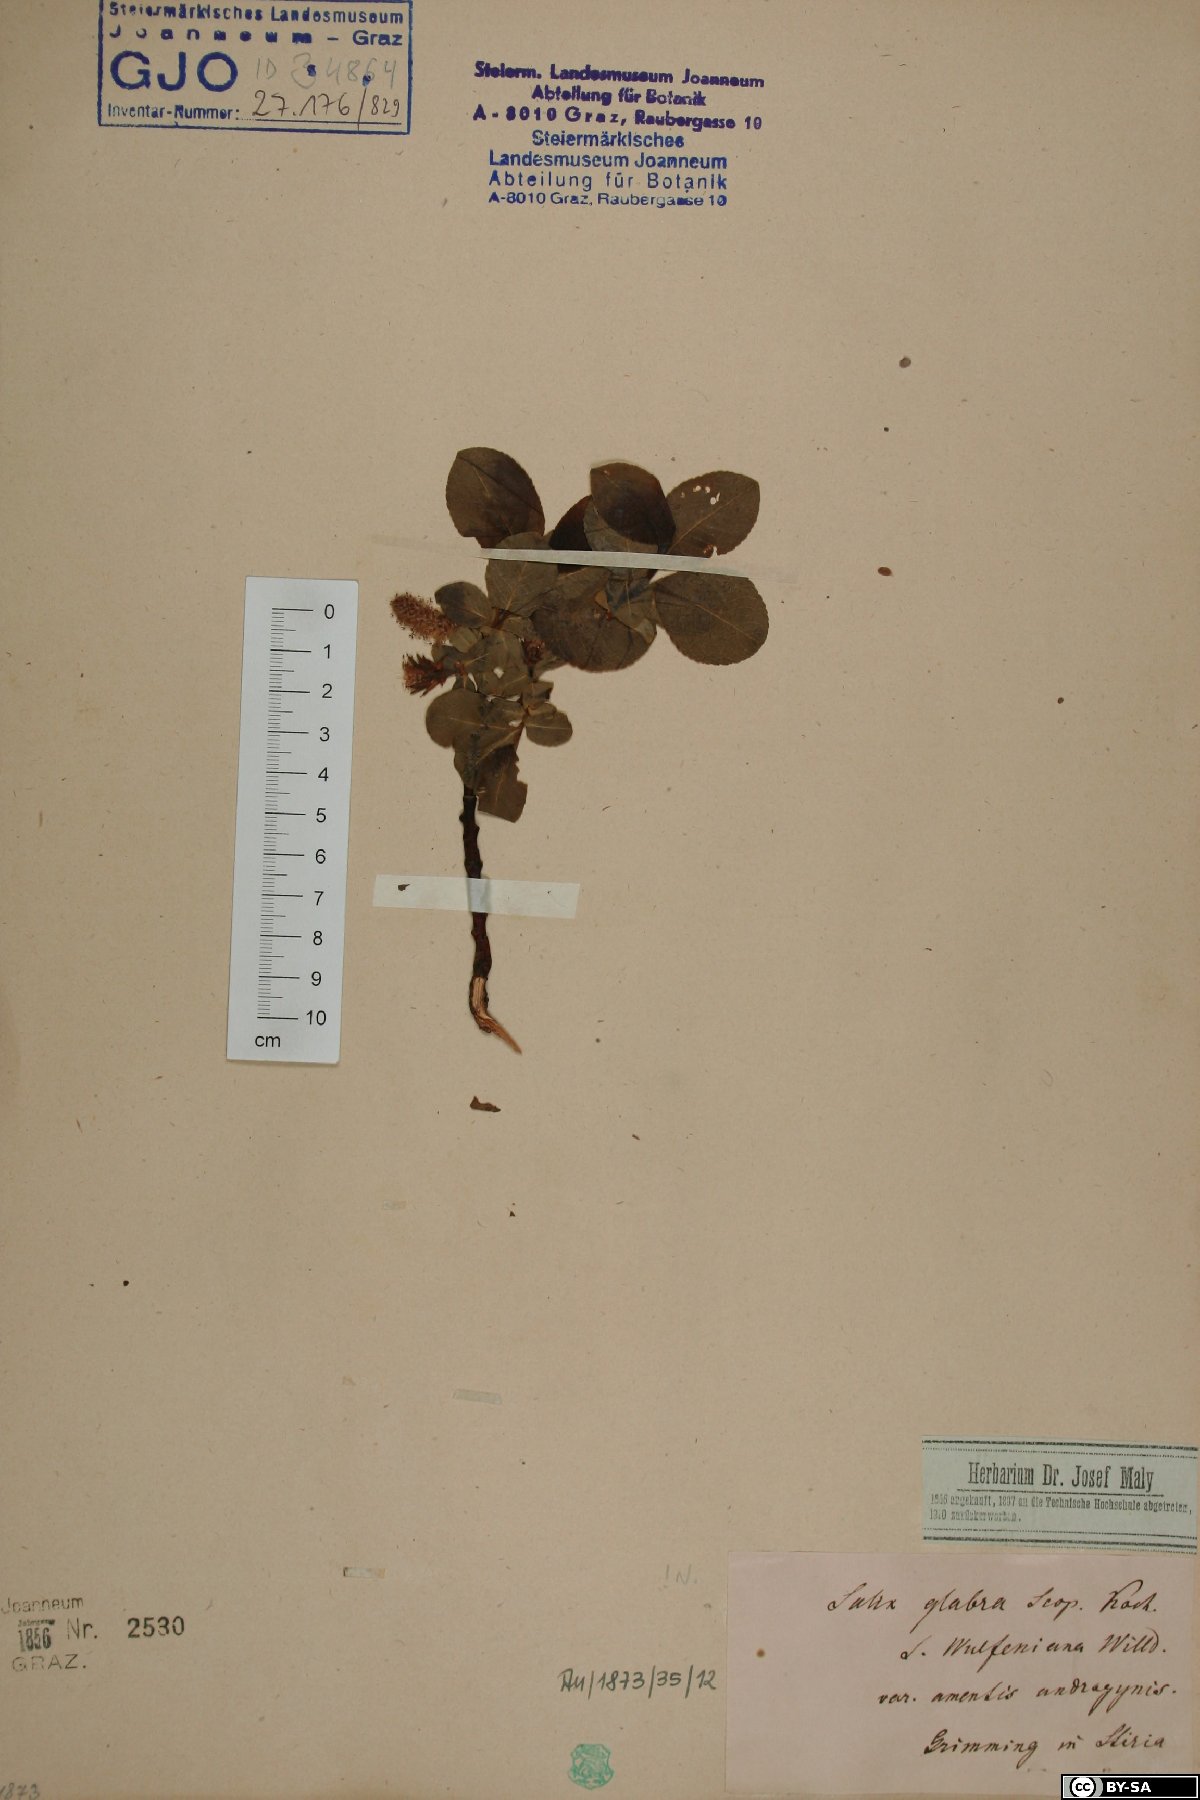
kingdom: Plantae
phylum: Tracheophyta
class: Magnoliopsida
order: Malpighiales
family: Salicaceae
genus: Salix
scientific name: Salix glabra
